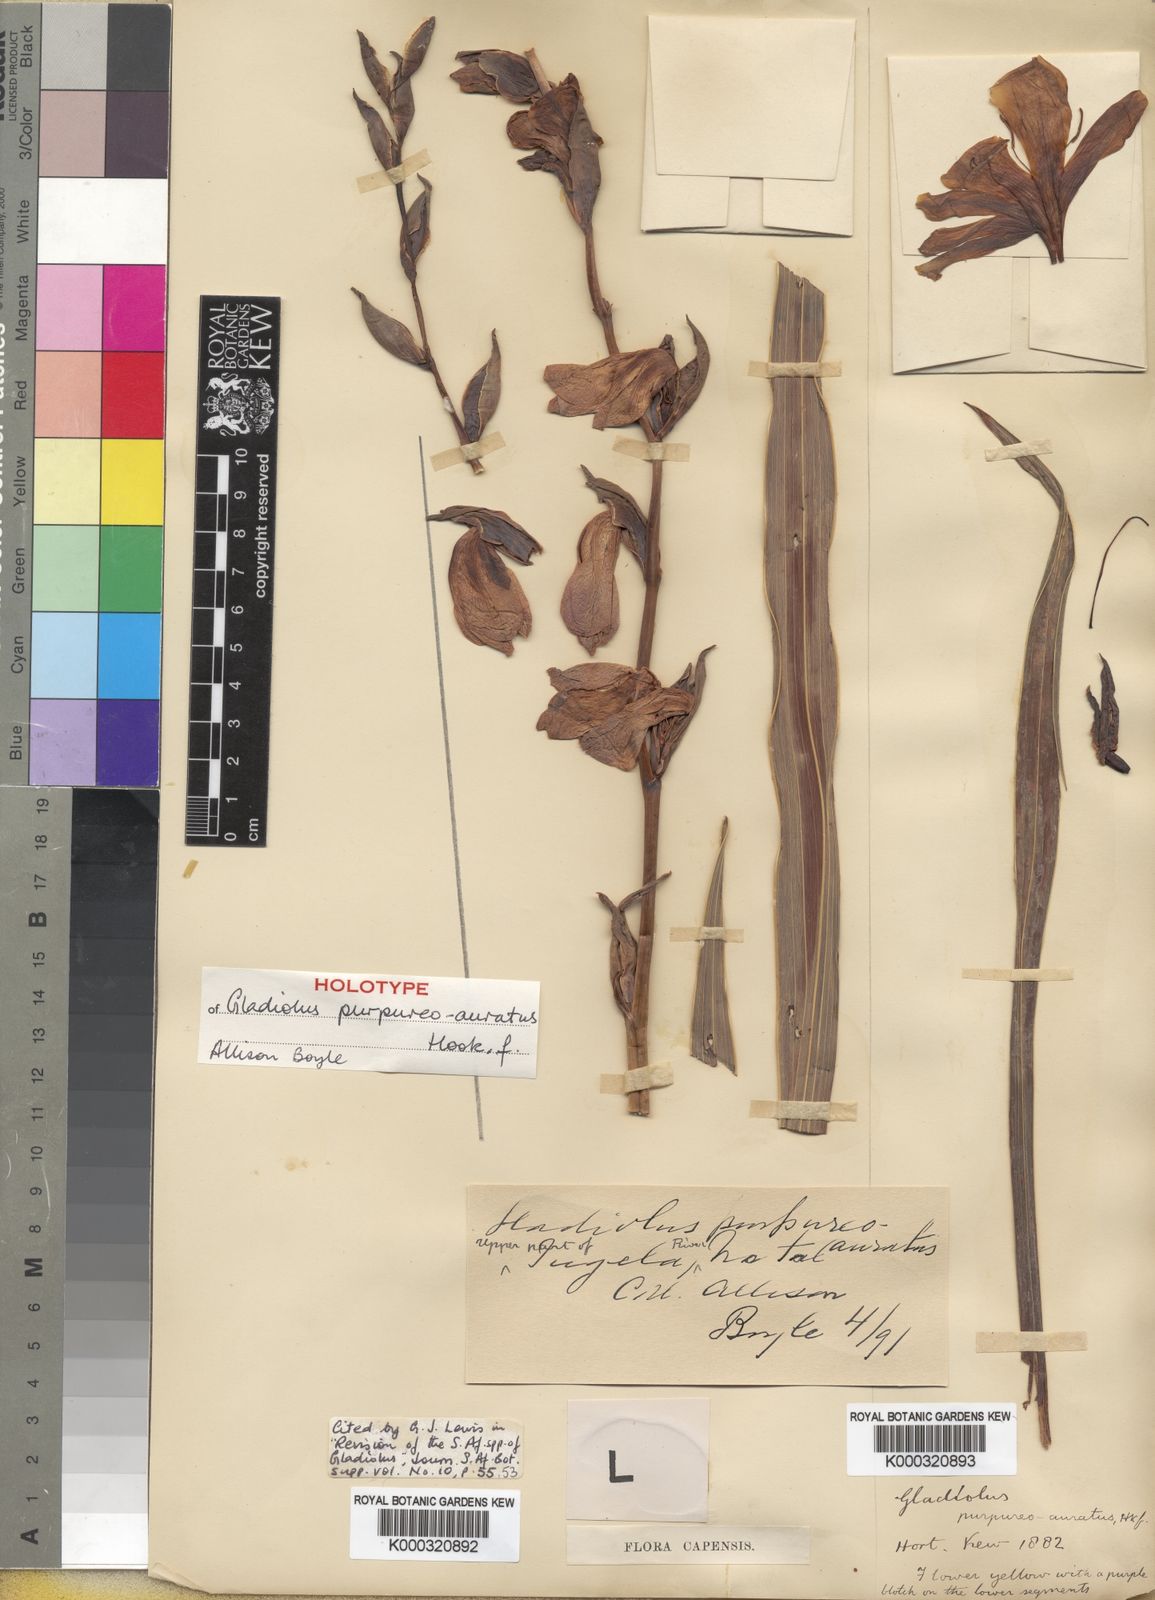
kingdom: Plantae
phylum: Tracheophyta
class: Liliopsida
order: Asparagales
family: Iridaceae
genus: Gladiolus
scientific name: Gladiolus papilio
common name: Goldblotch gladiolus
